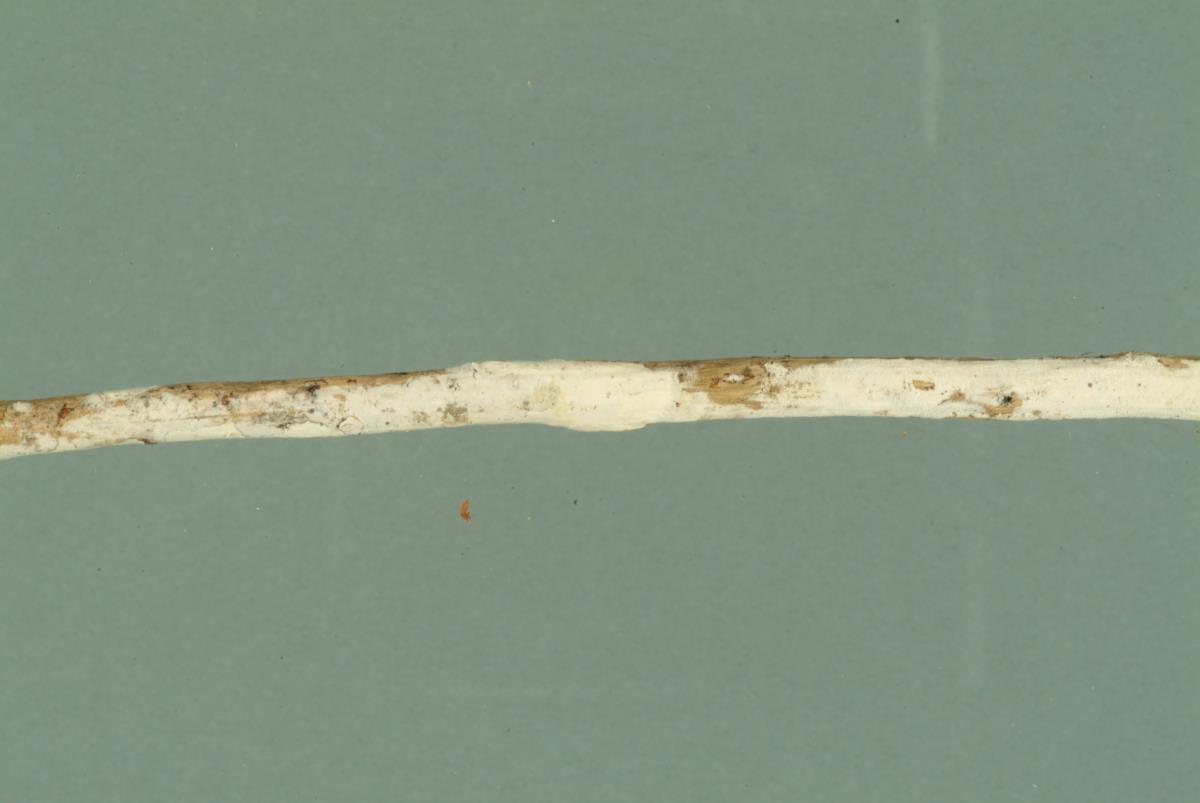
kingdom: Fungi
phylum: Basidiomycota
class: Agaricomycetes
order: Atheliales
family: Atheliaceae
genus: Melzericium
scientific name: Melzericium udicola
